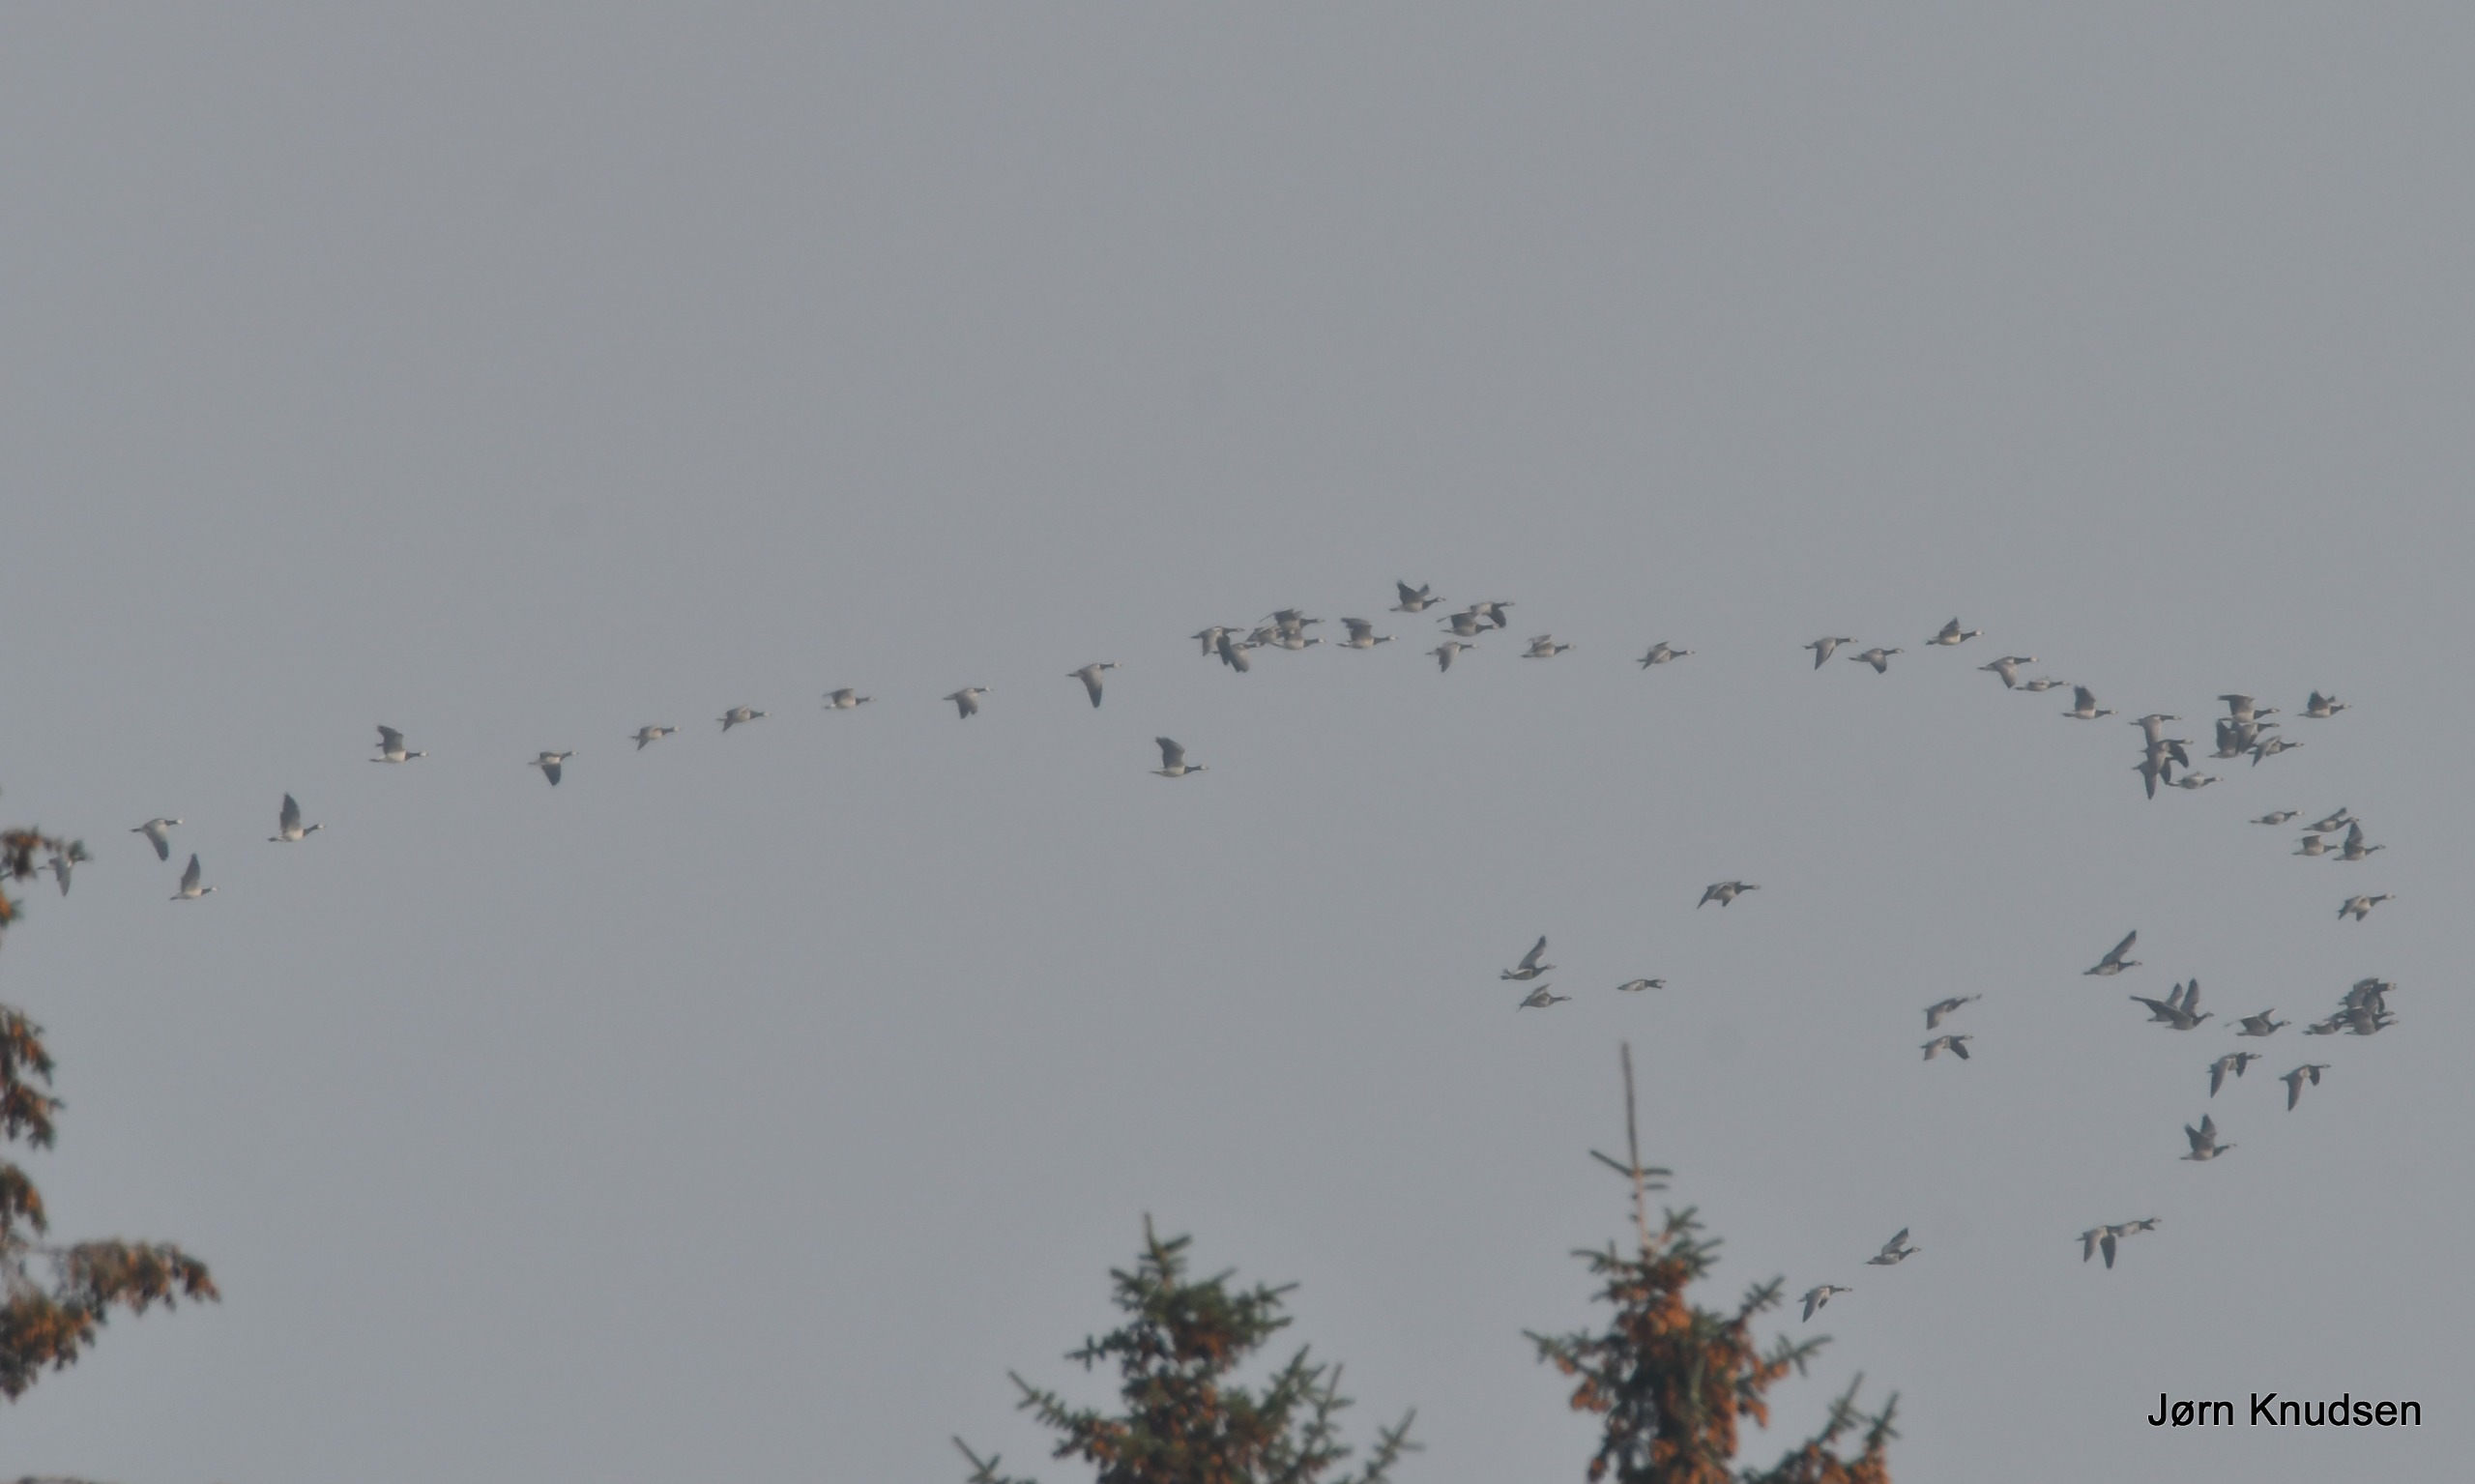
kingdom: Animalia
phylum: Chordata
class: Aves
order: Anseriformes
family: Anatidae
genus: Branta
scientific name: Branta leucopsis
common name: Bramgås
